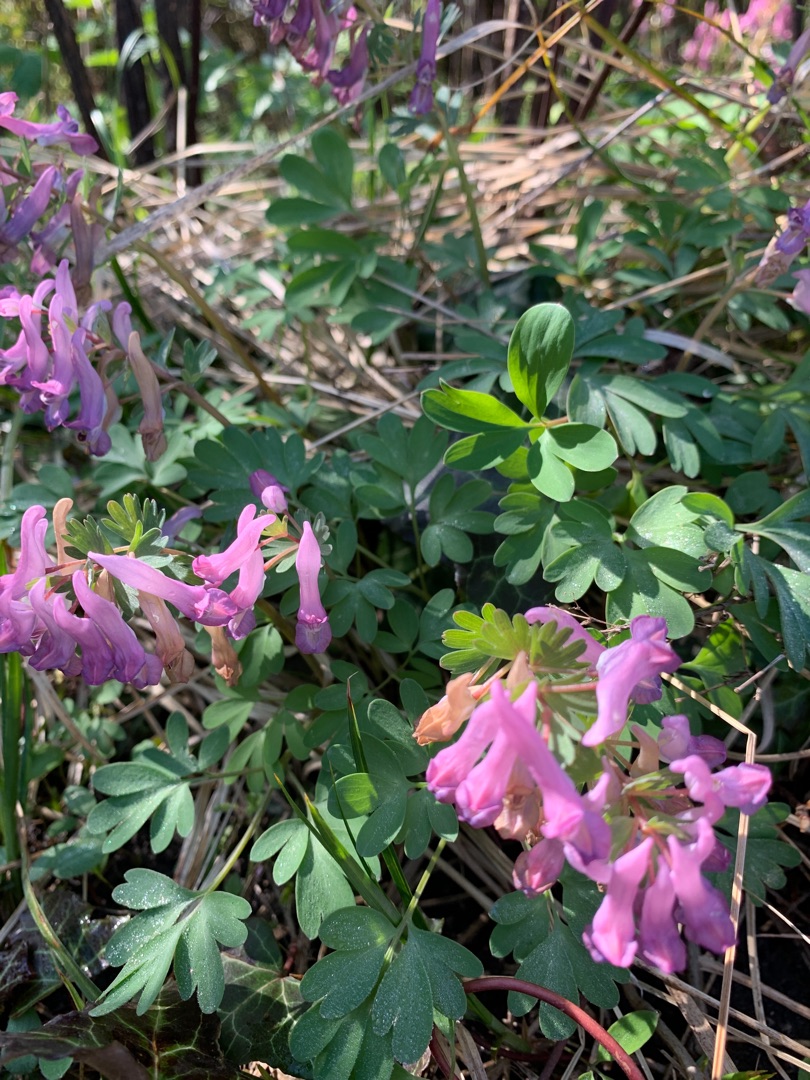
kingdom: Plantae
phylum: Tracheophyta
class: Magnoliopsida
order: Ranunculales
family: Papaveraceae
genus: Corydalis
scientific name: Corydalis solida
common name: Langstilket lærkespore
